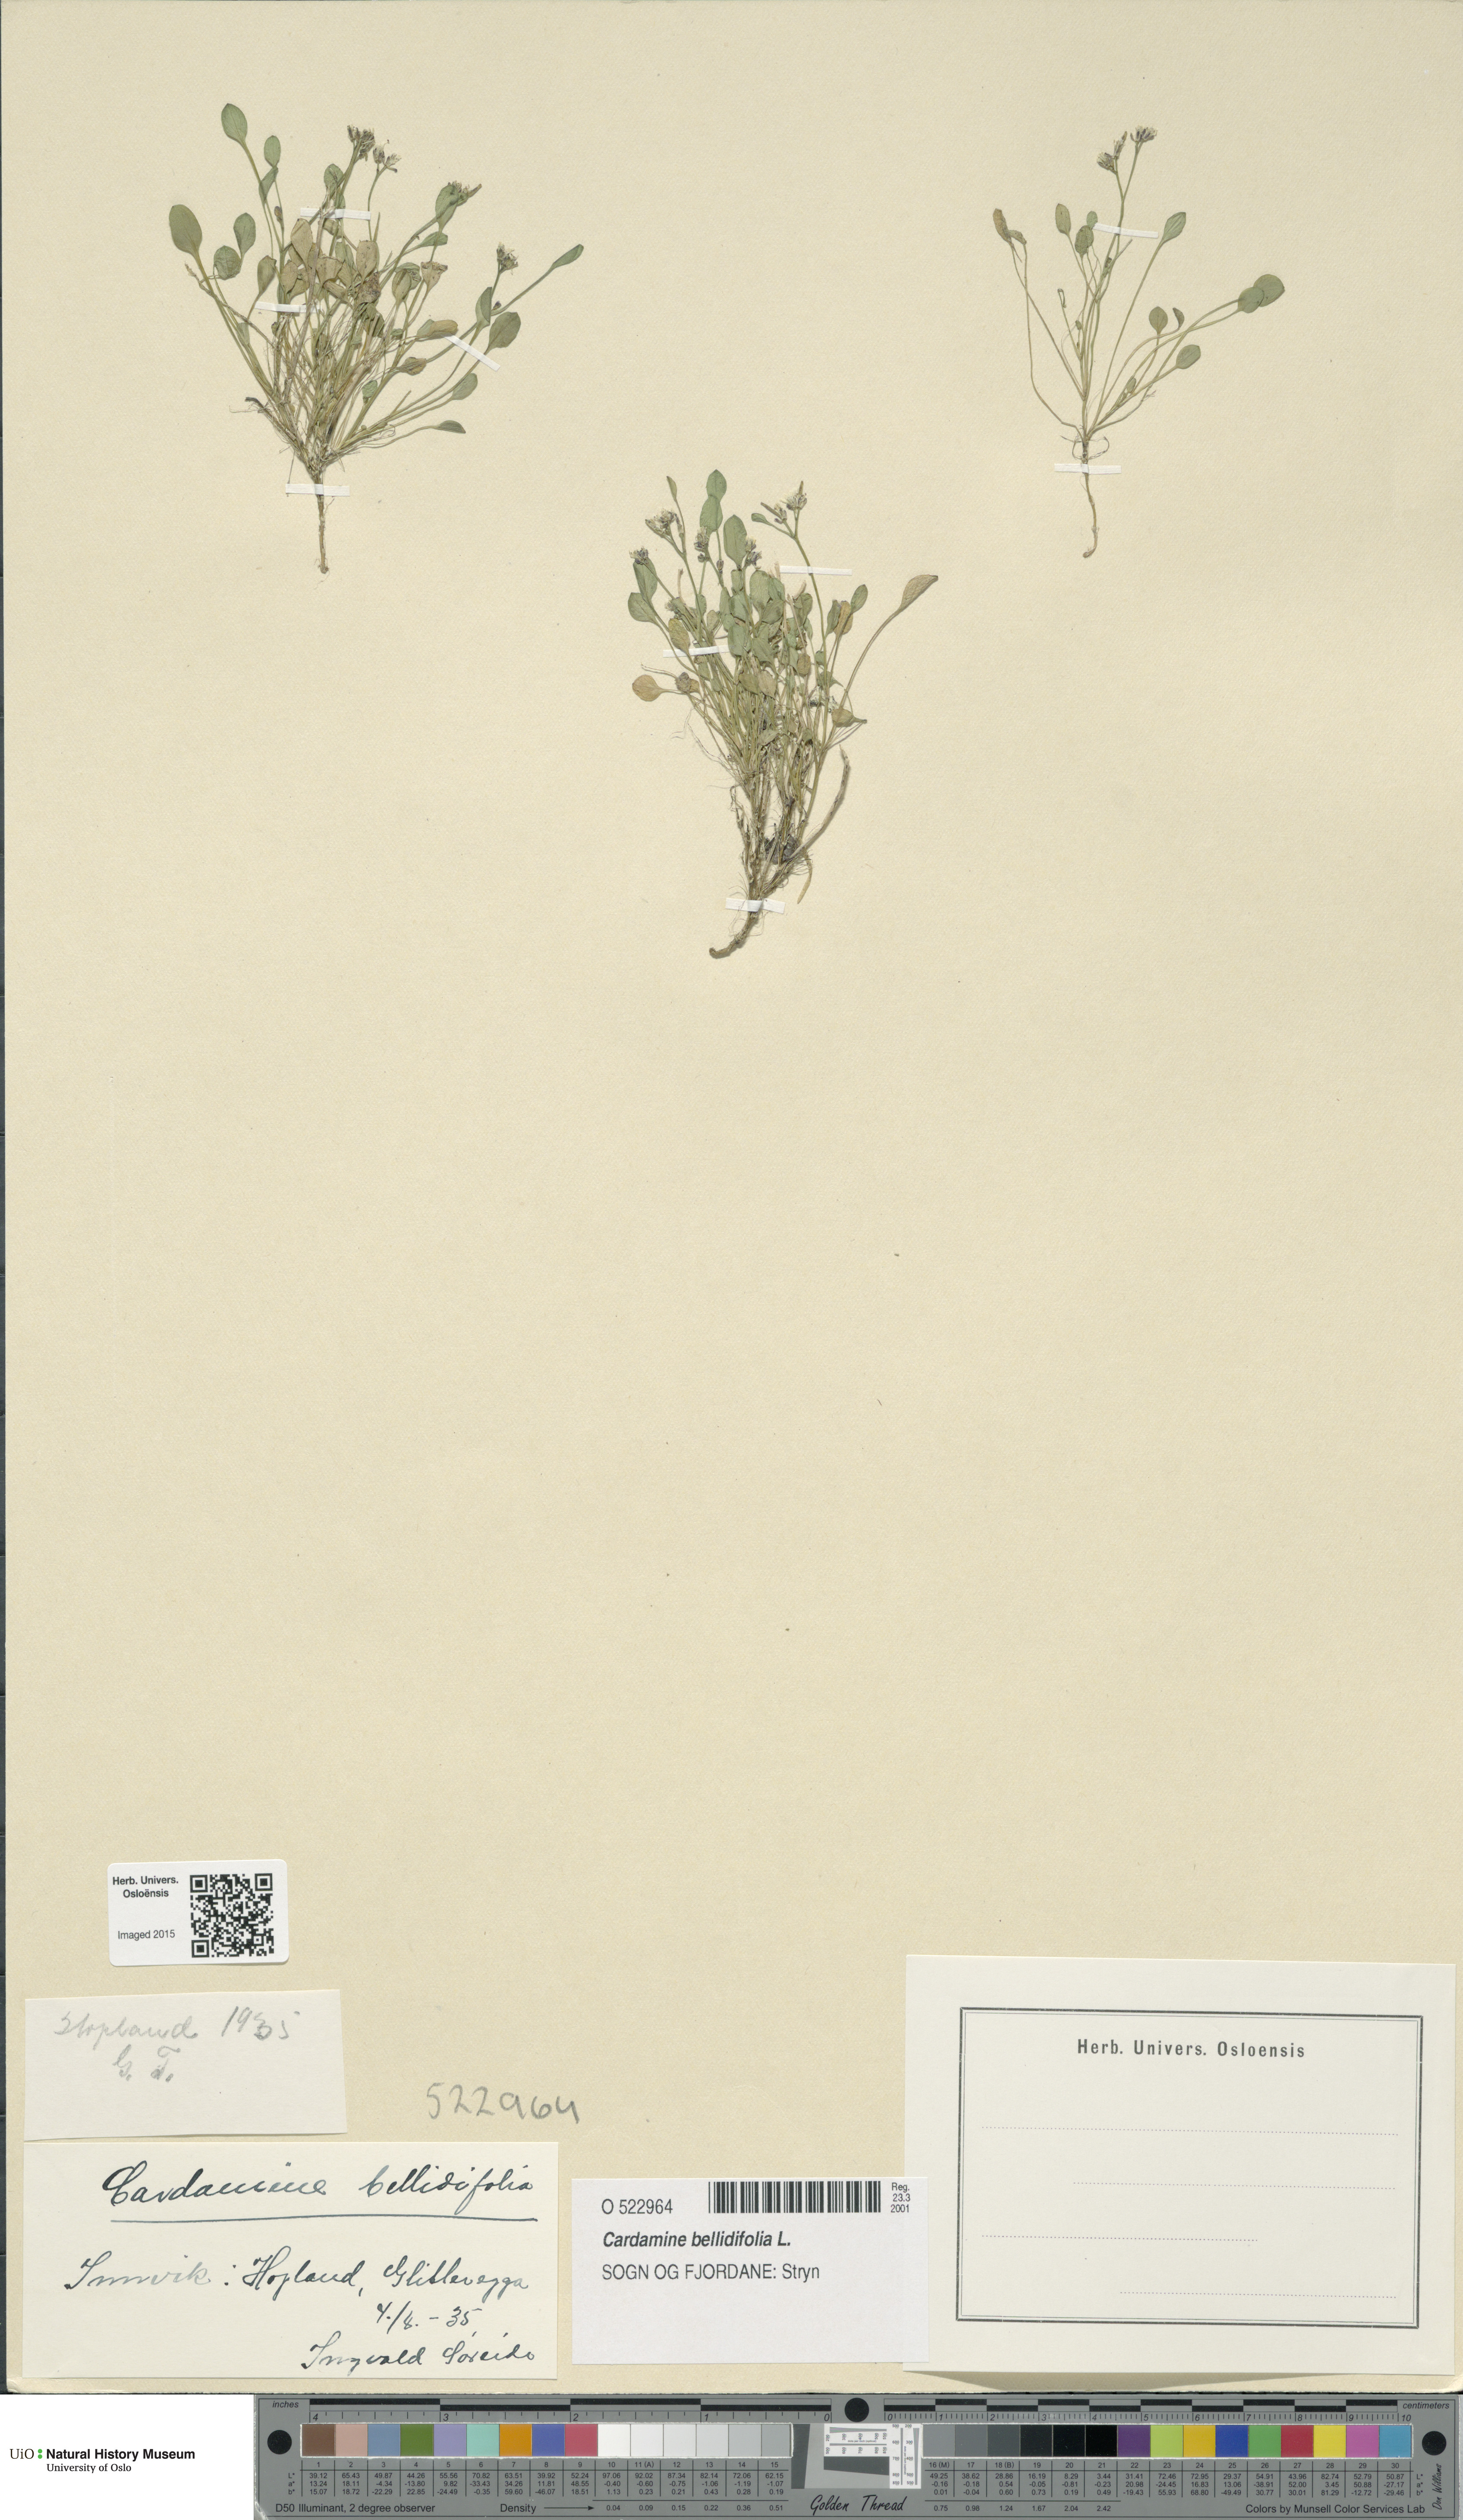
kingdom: Plantae
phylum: Tracheophyta
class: Magnoliopsida
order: Brassicales
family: Brassicaceae
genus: Cardamine
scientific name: Cardamine bellidifolia
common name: Alpine bittercress
